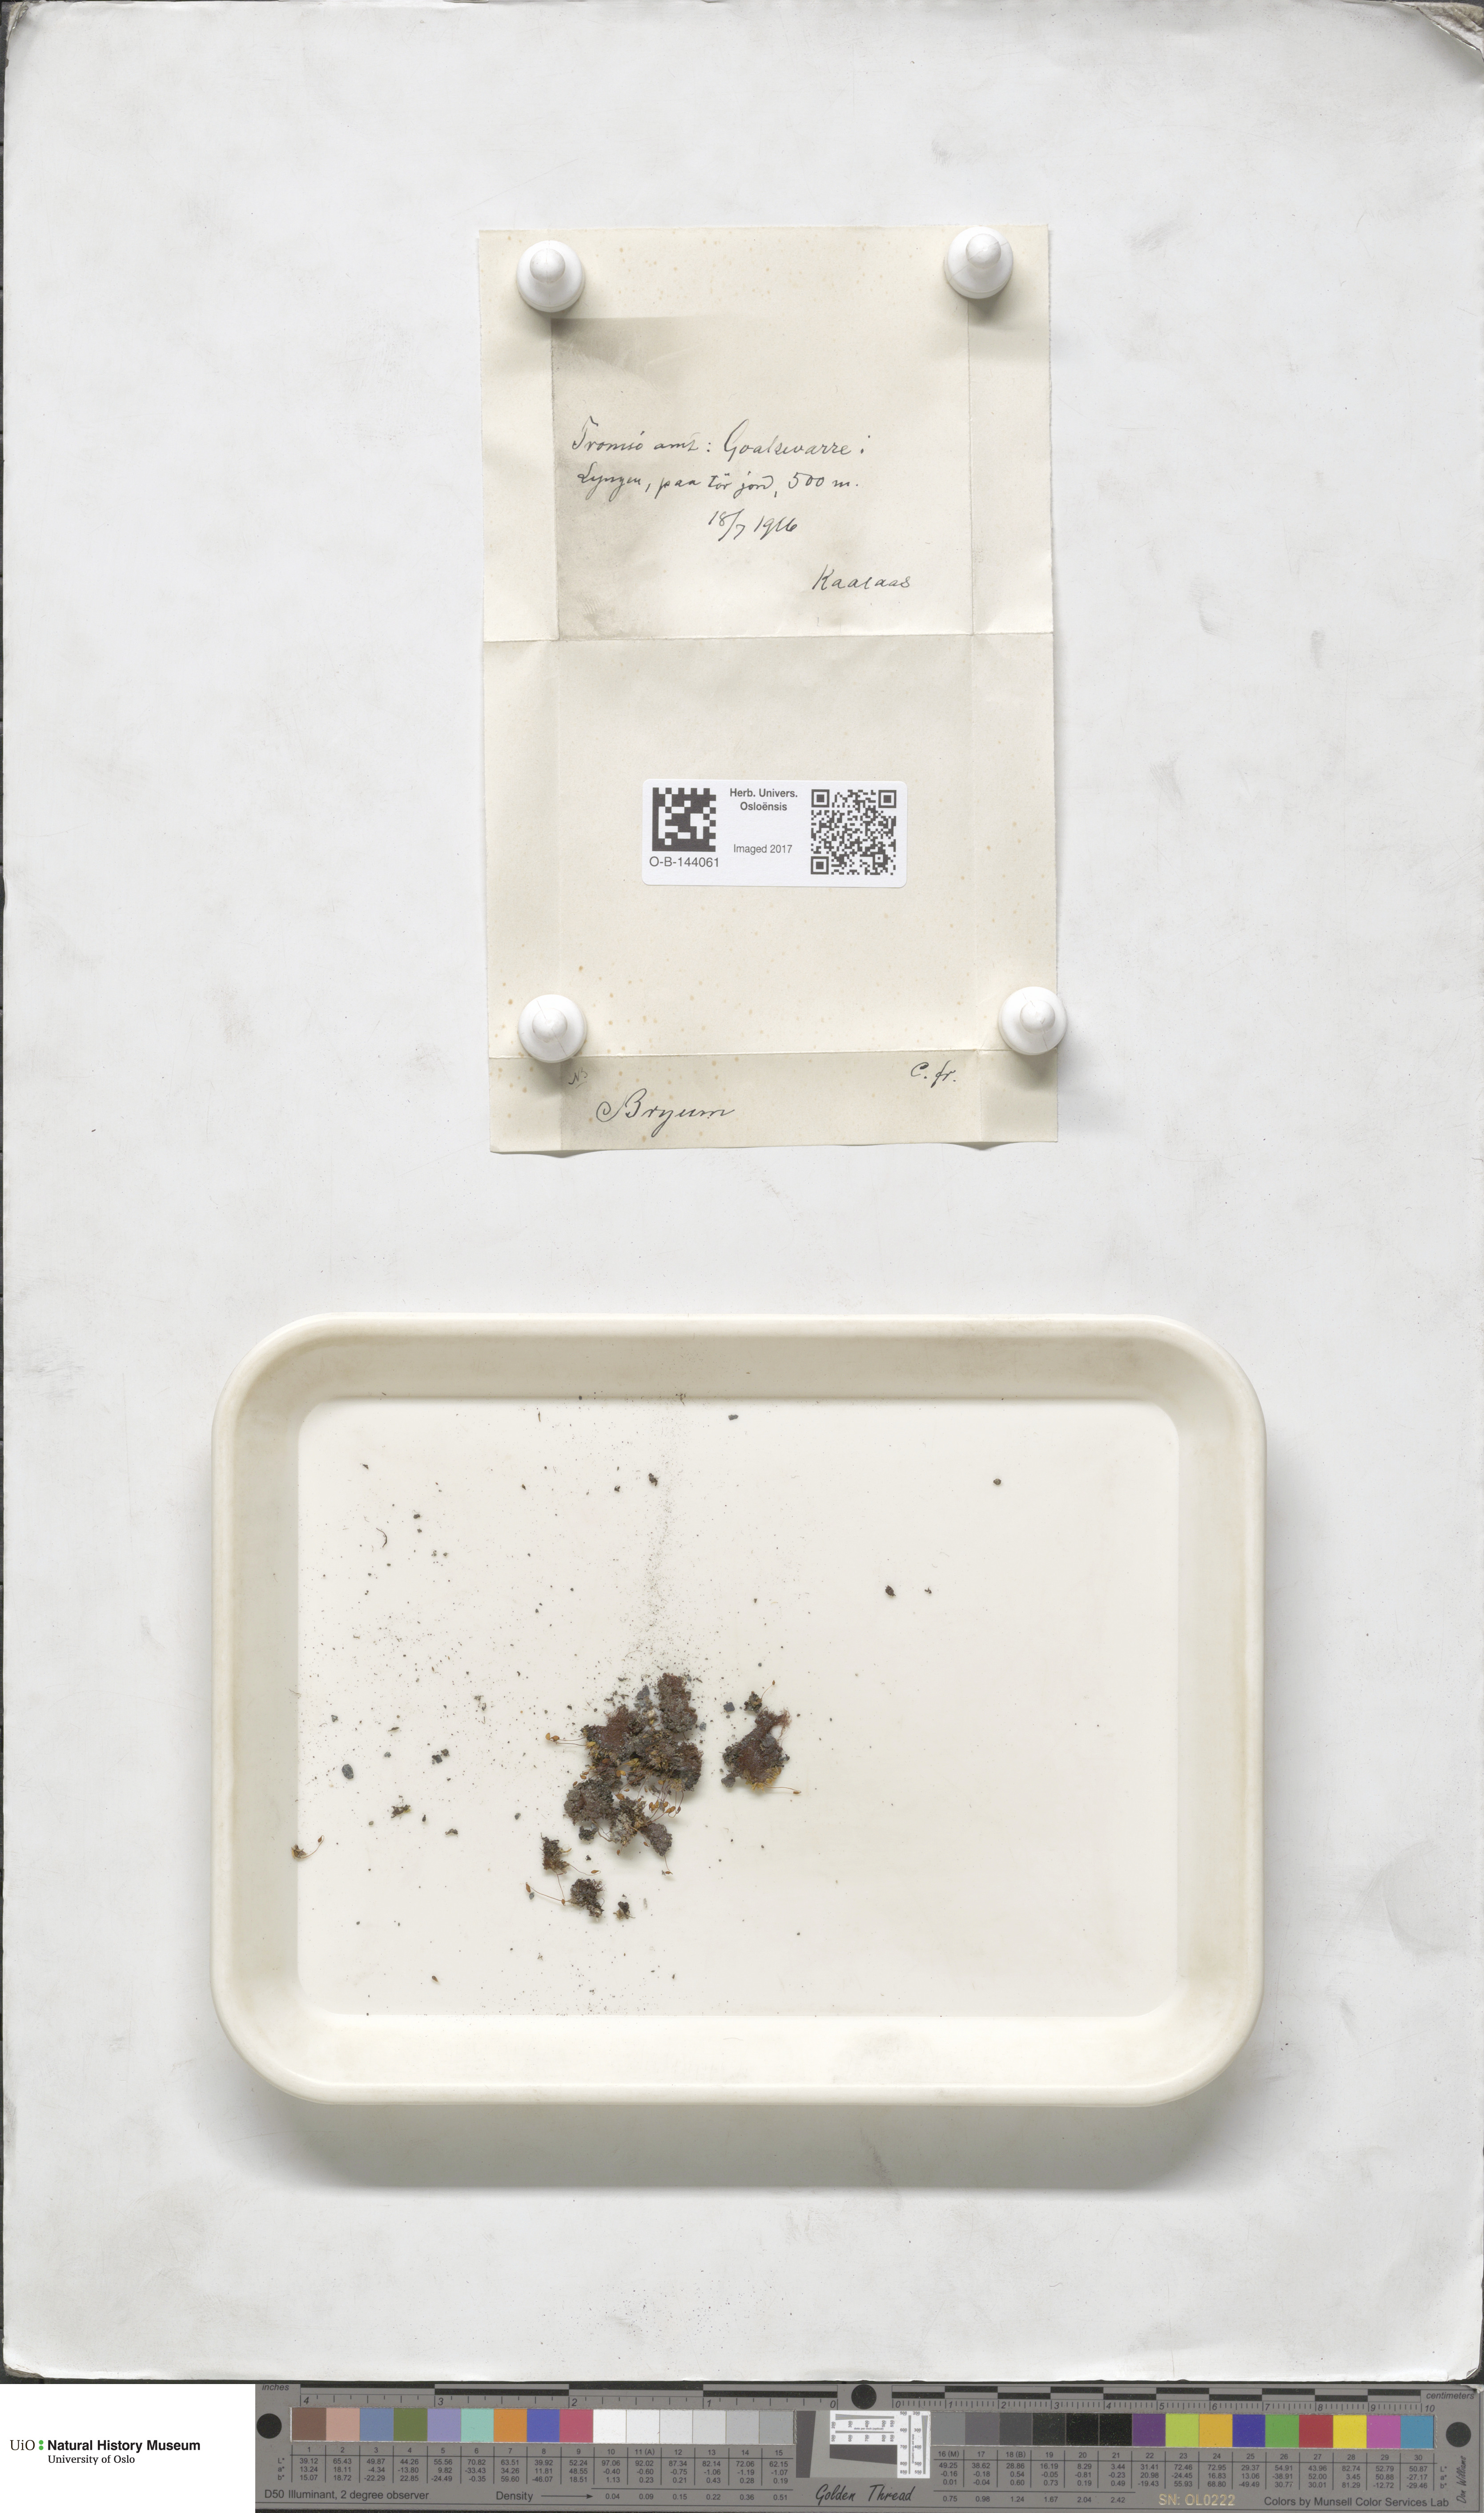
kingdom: Plantae
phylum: Bryophyta
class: Bryopsida
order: Bryales
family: Bryaceae
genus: Bryum
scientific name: Bryum
